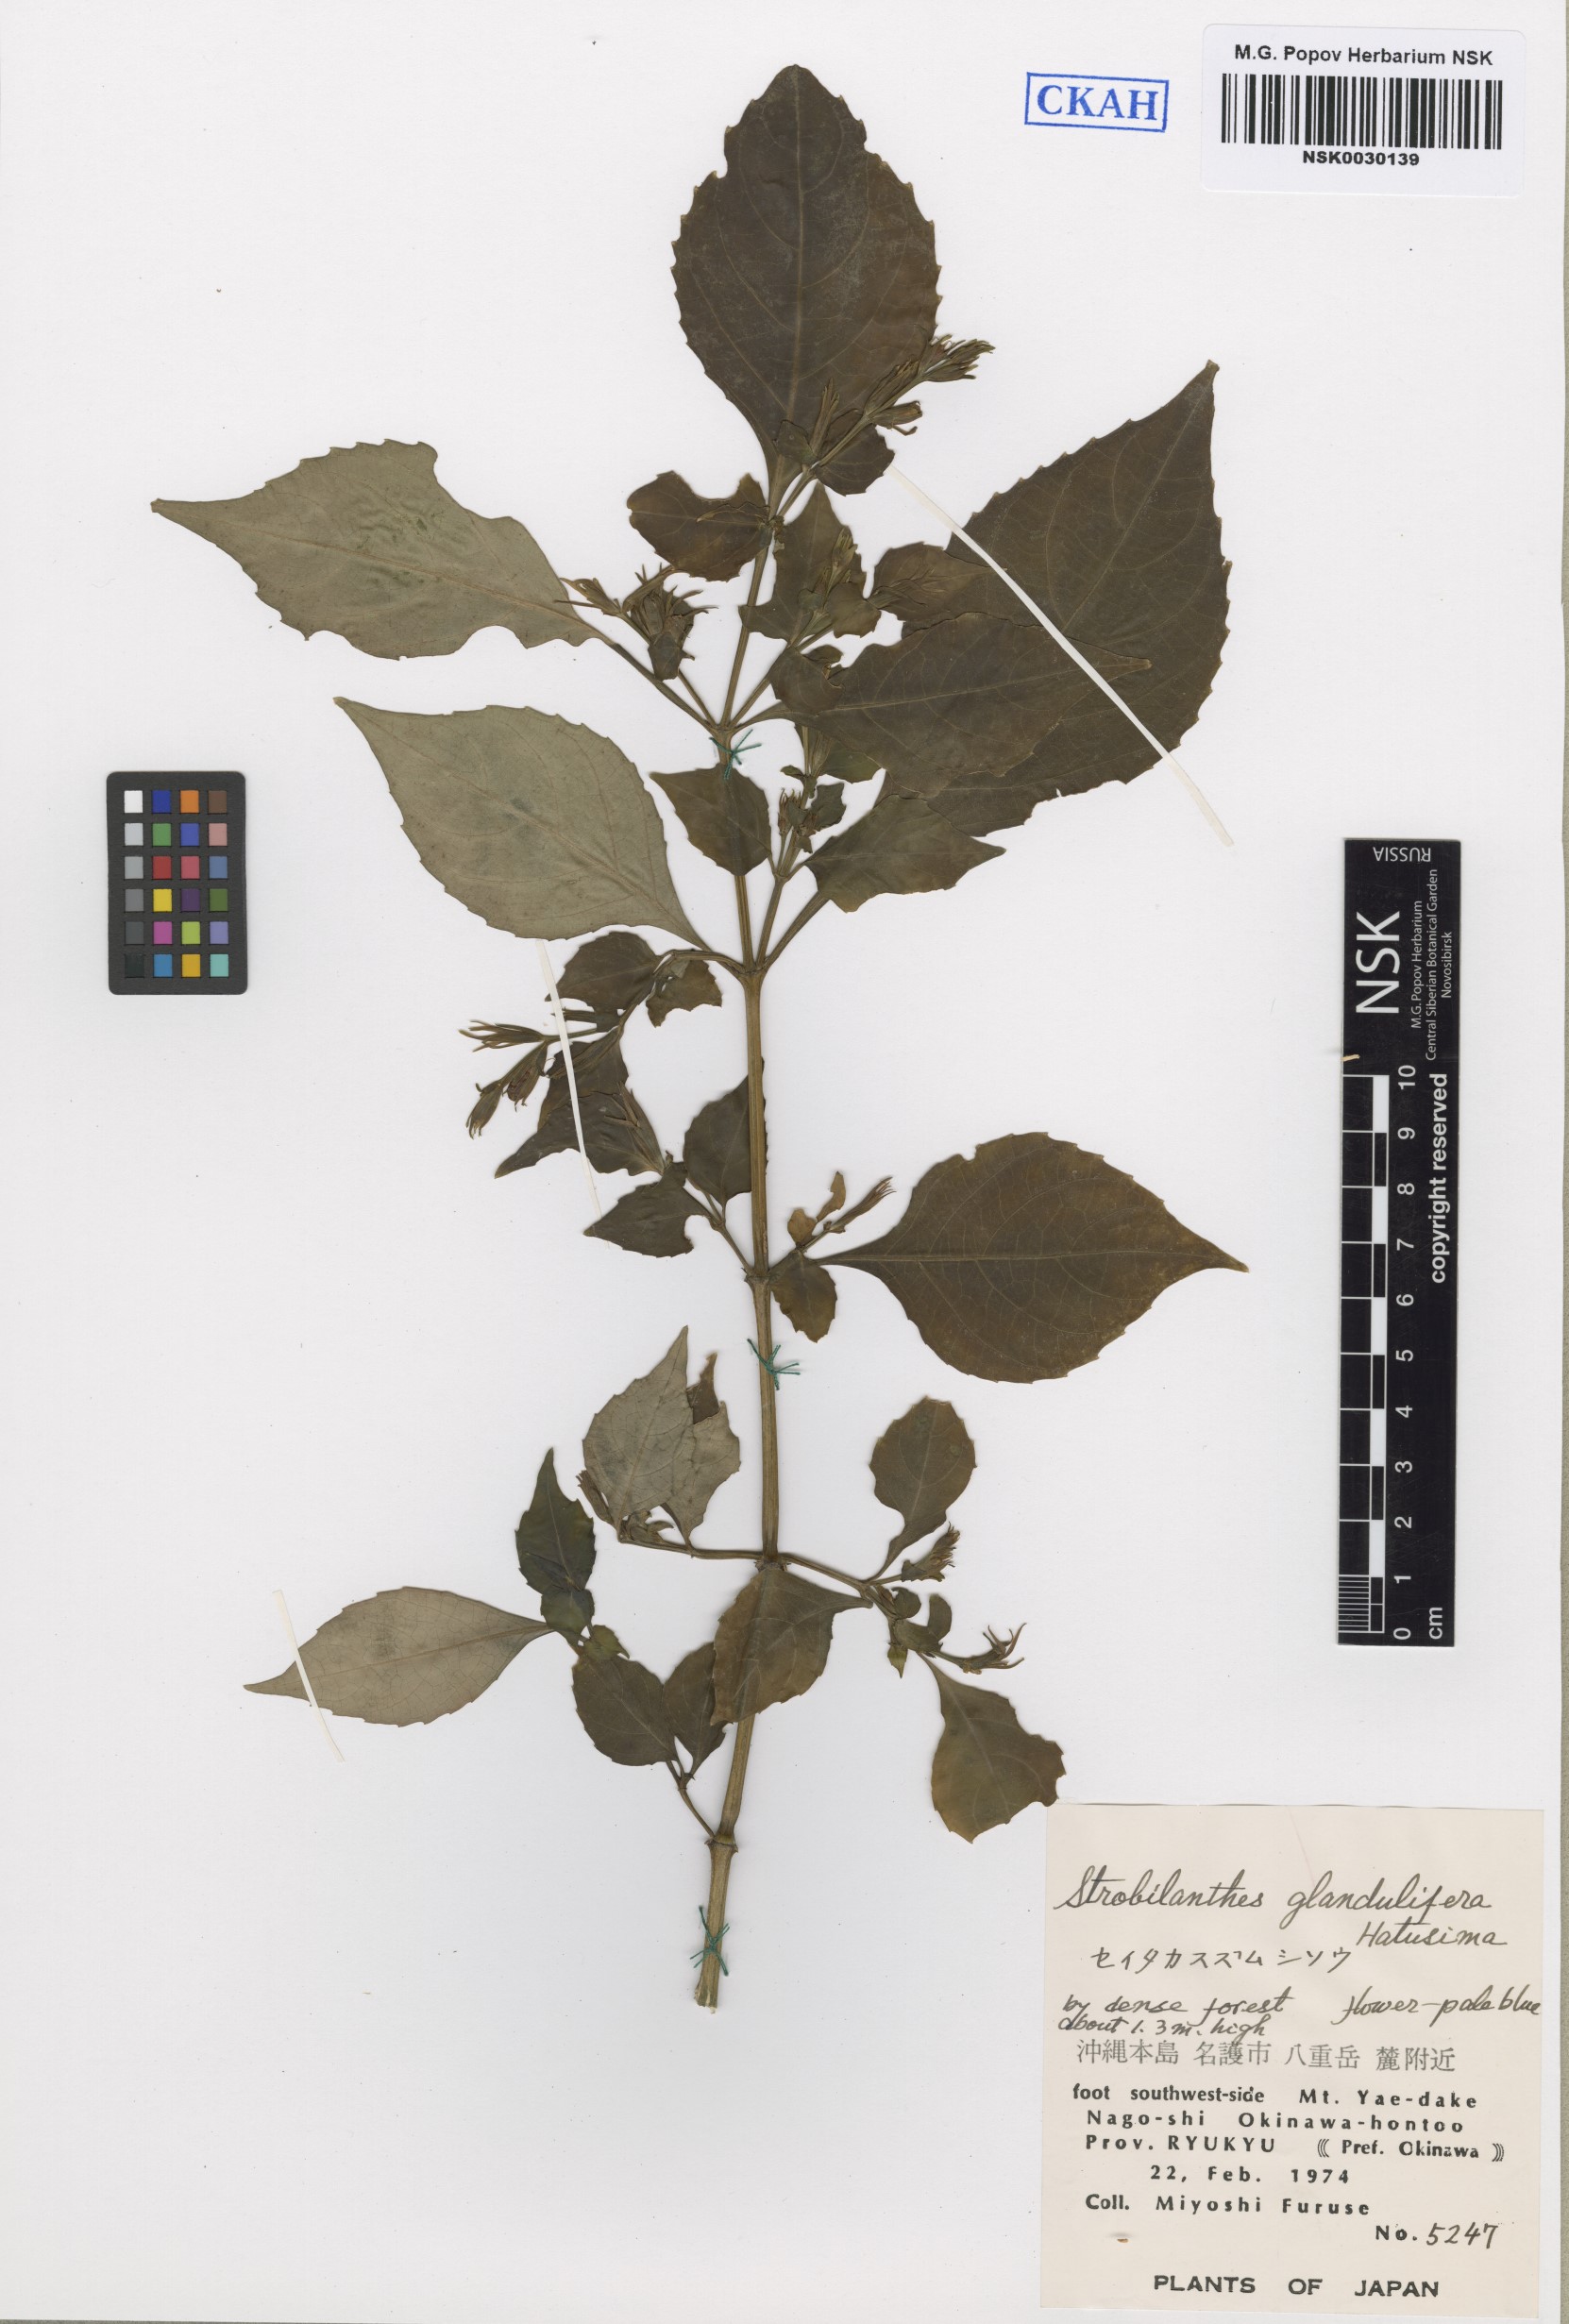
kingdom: Plantae
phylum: Tracheophyta
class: Magnoliopsida
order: Lamiales
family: Acanthaceae
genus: Strobilanthes
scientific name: Strobilanthes flexicaulis
